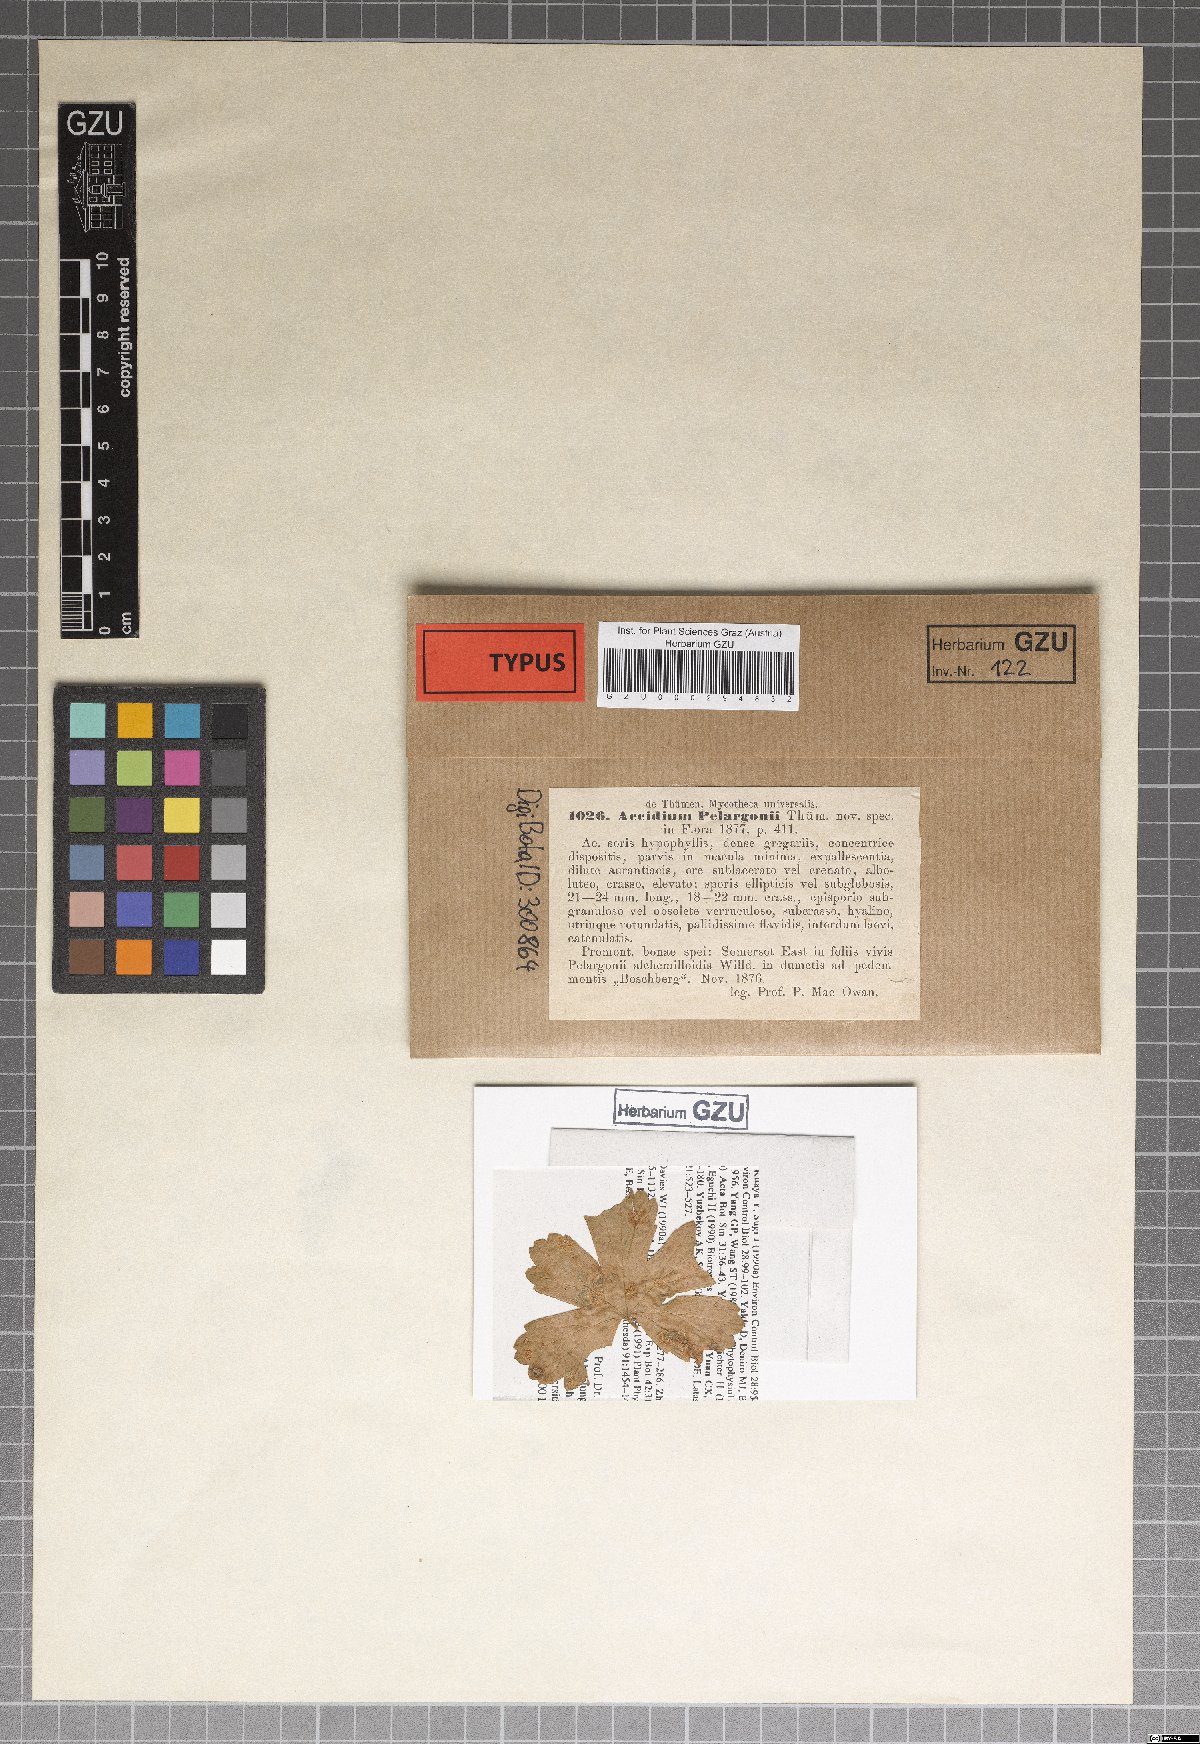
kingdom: Fungi
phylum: Basidiomycota
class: Pucciniomycetes
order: Pucciniales
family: Pucciniaceae
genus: Puccinia
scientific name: Puccinia pelargonii
